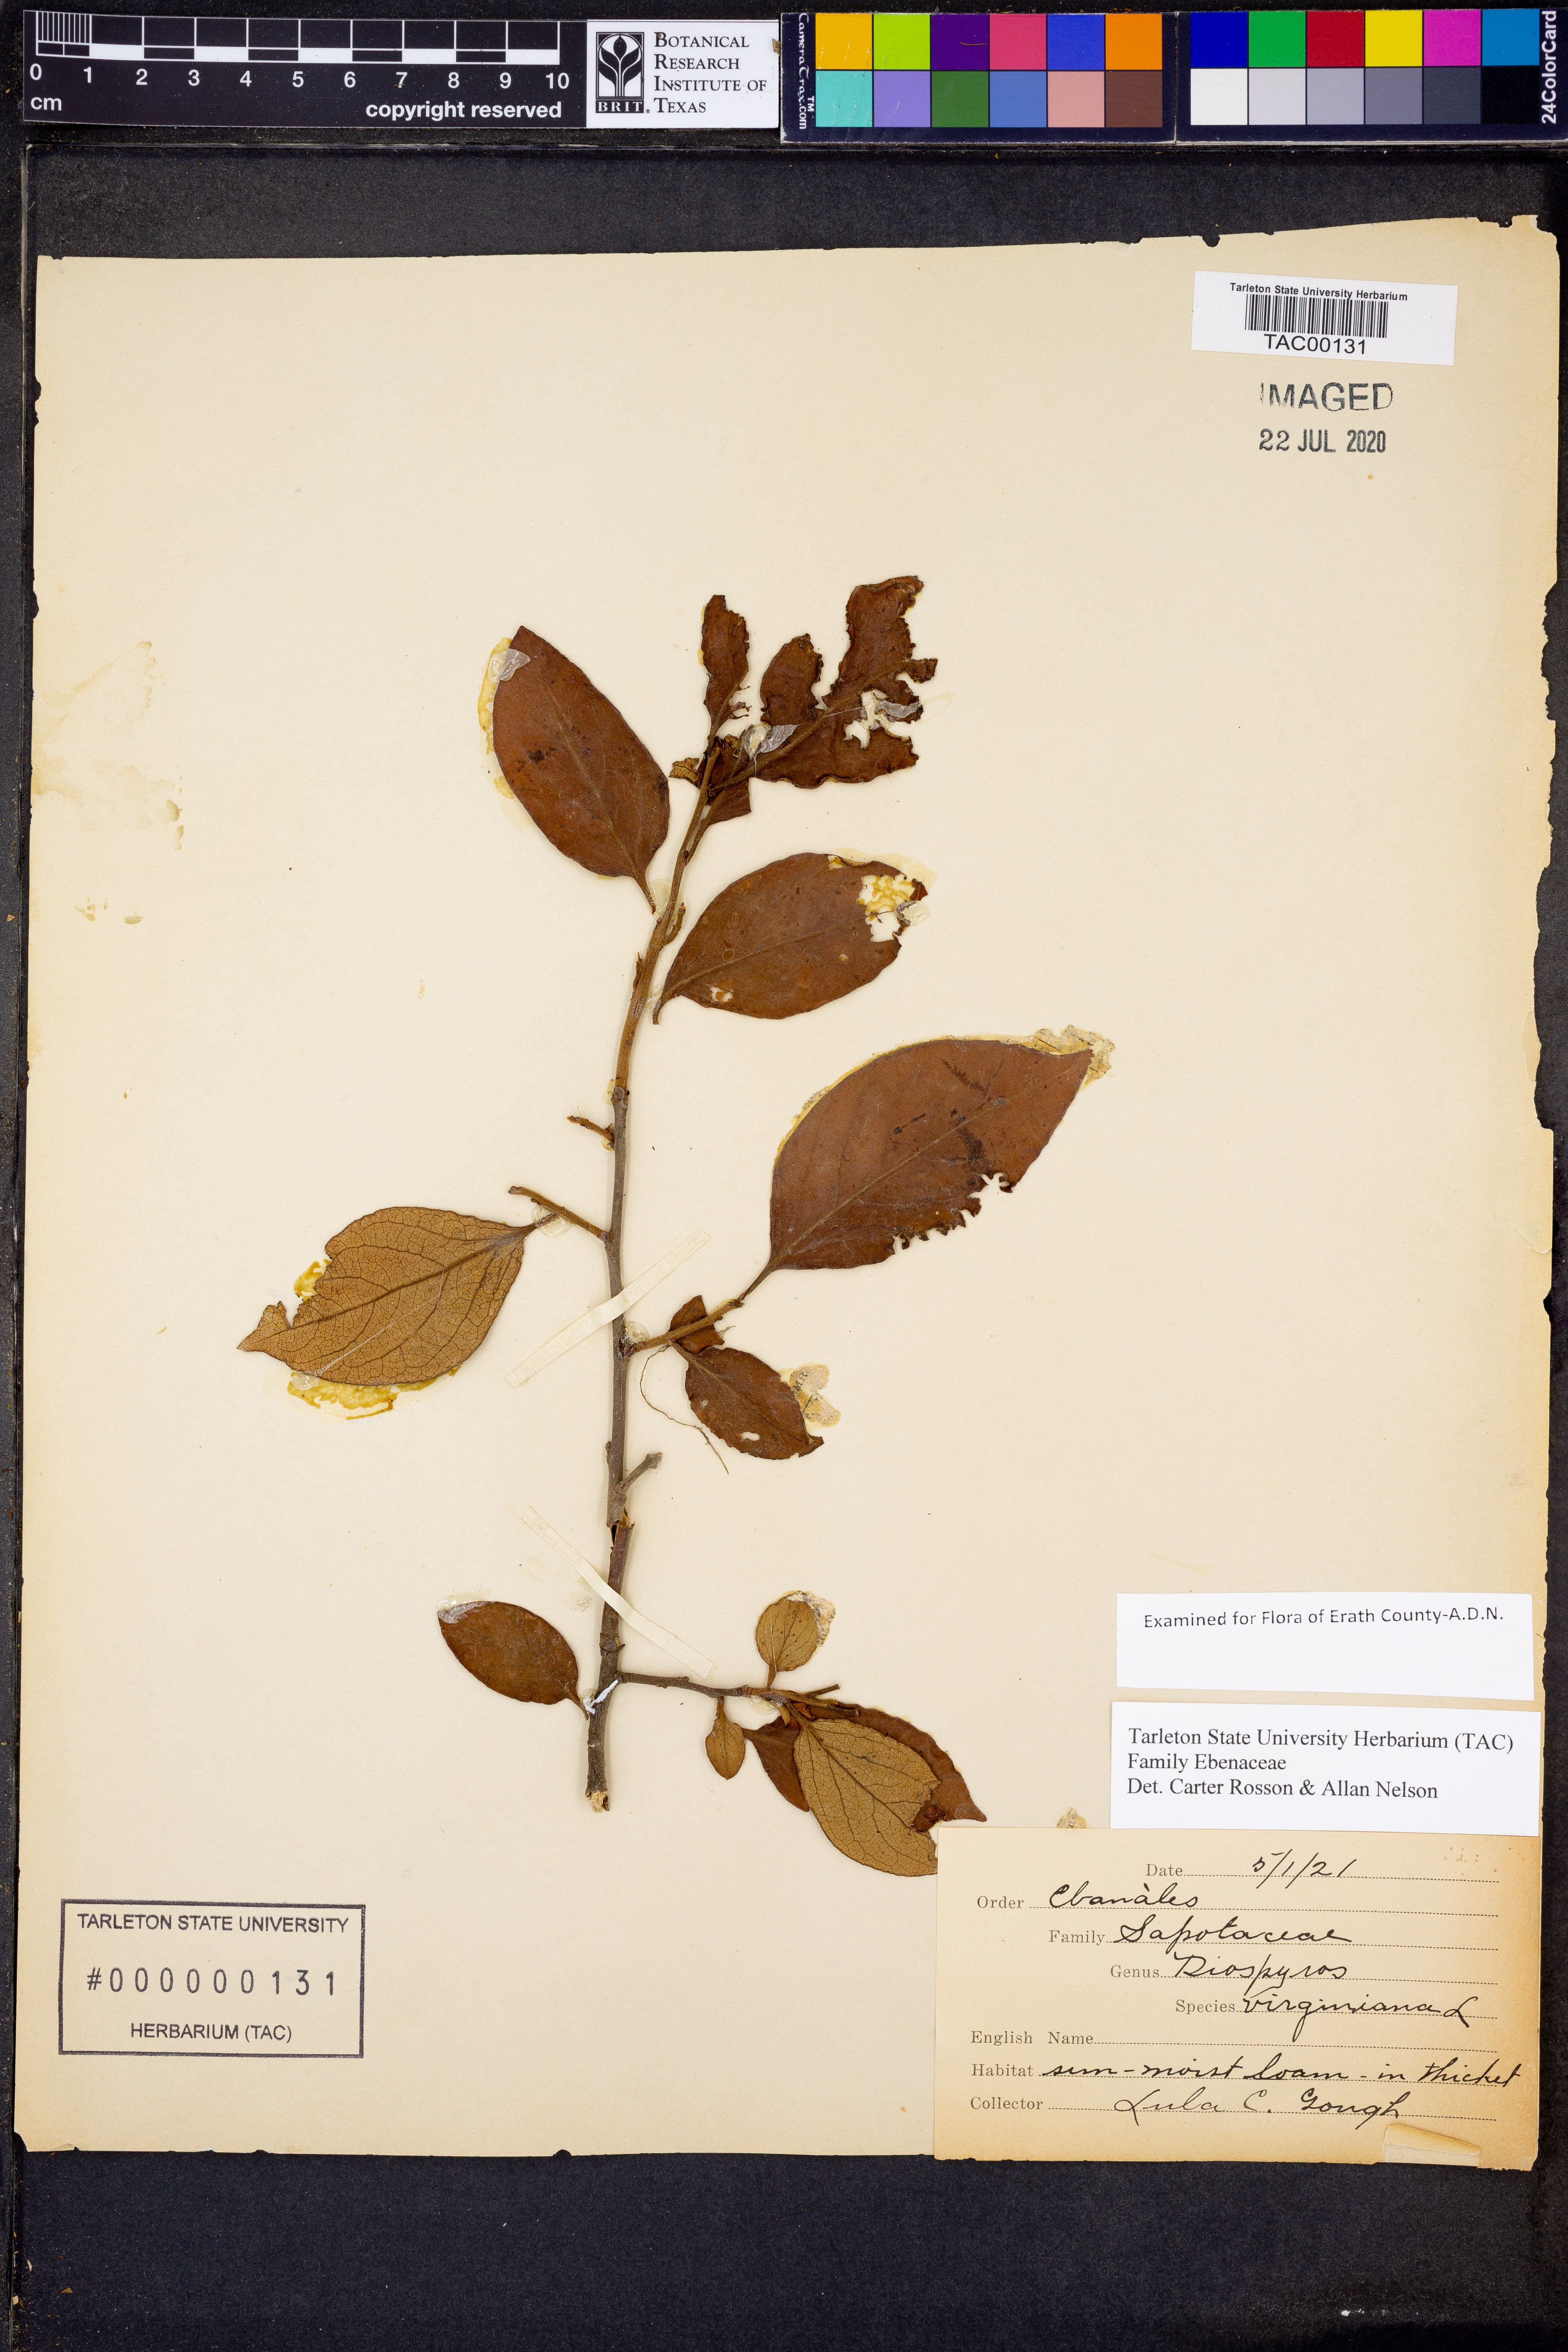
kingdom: Plantae
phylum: Tracheophyta
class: Magnoliopsida
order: Ericales
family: Ebenaceae
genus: Diospyros
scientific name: Diospyros virginiana
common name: Persimmon
